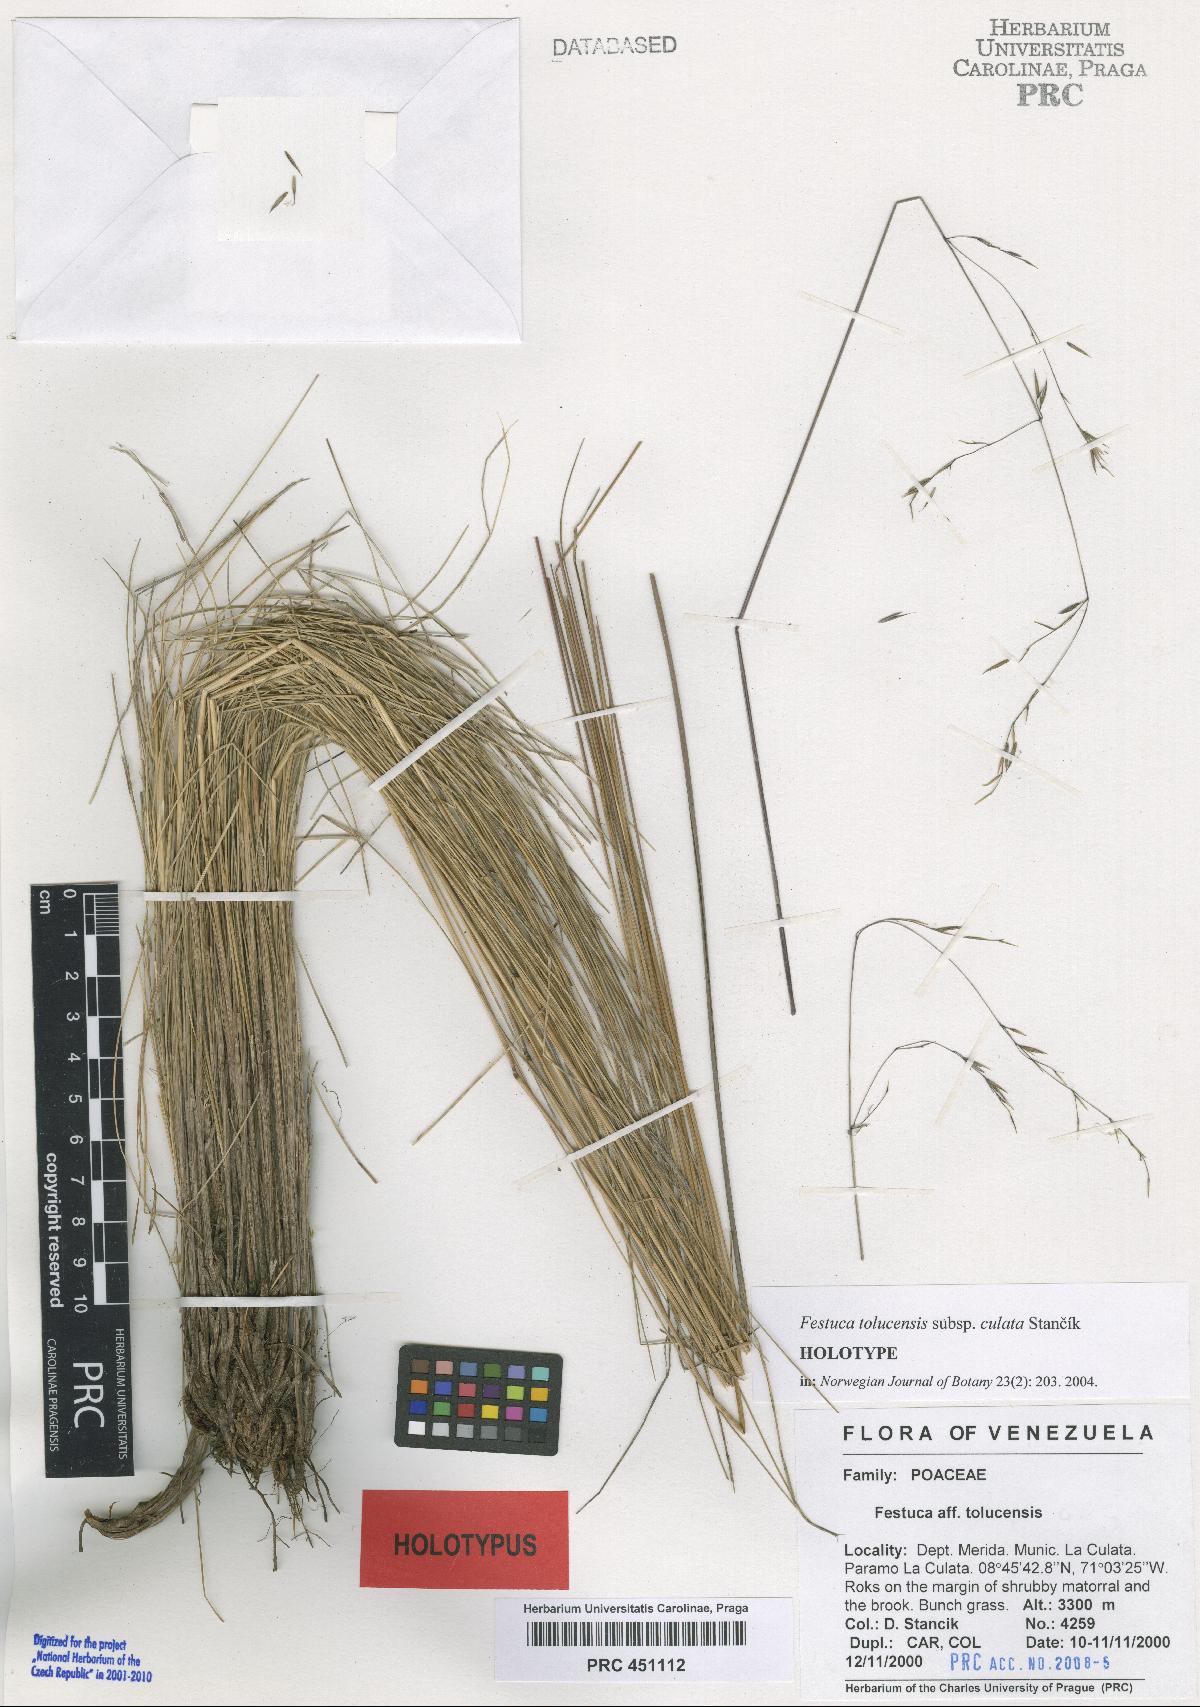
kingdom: Plantae
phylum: Tracheophyta
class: Liliopsida
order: Poales
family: Poaceae
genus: Festuca
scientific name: Festuca tolucensis
